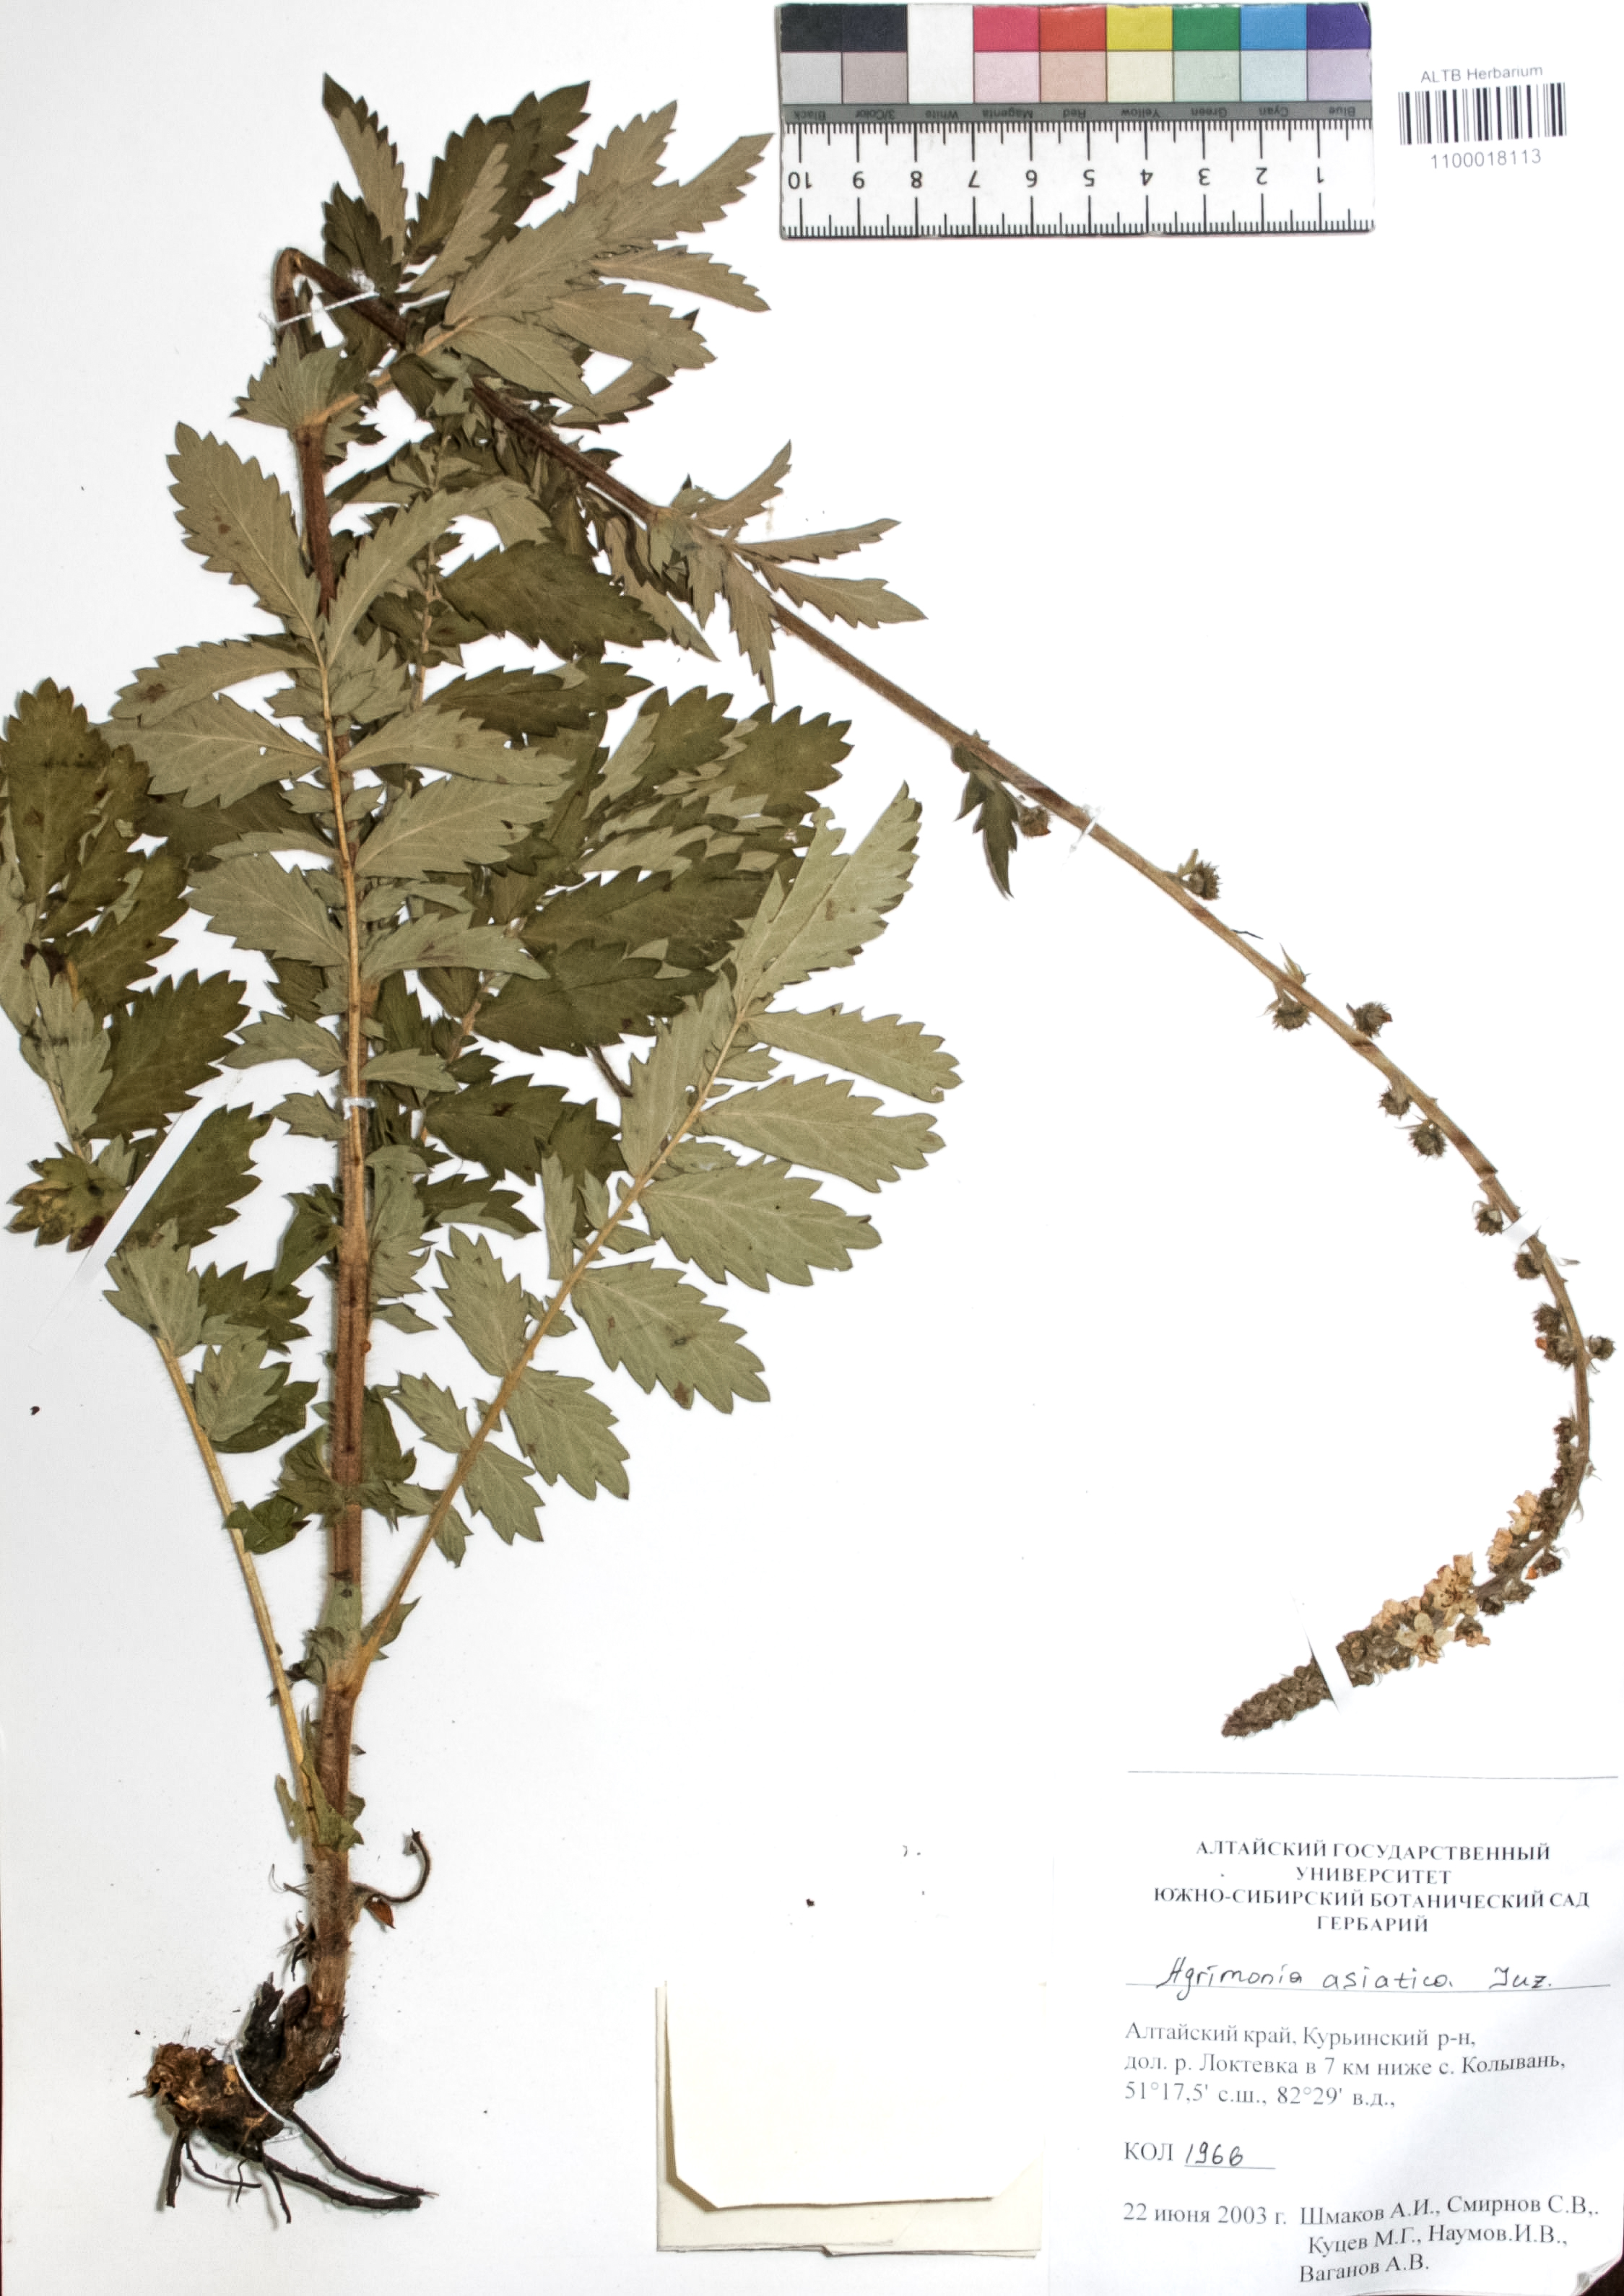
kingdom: Plantae
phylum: Tracheophyta
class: Magnoliopsida
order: Rosales
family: Rosaceae
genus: Agrimonia
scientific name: Agrimonia eupatoria
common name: Agrimony
